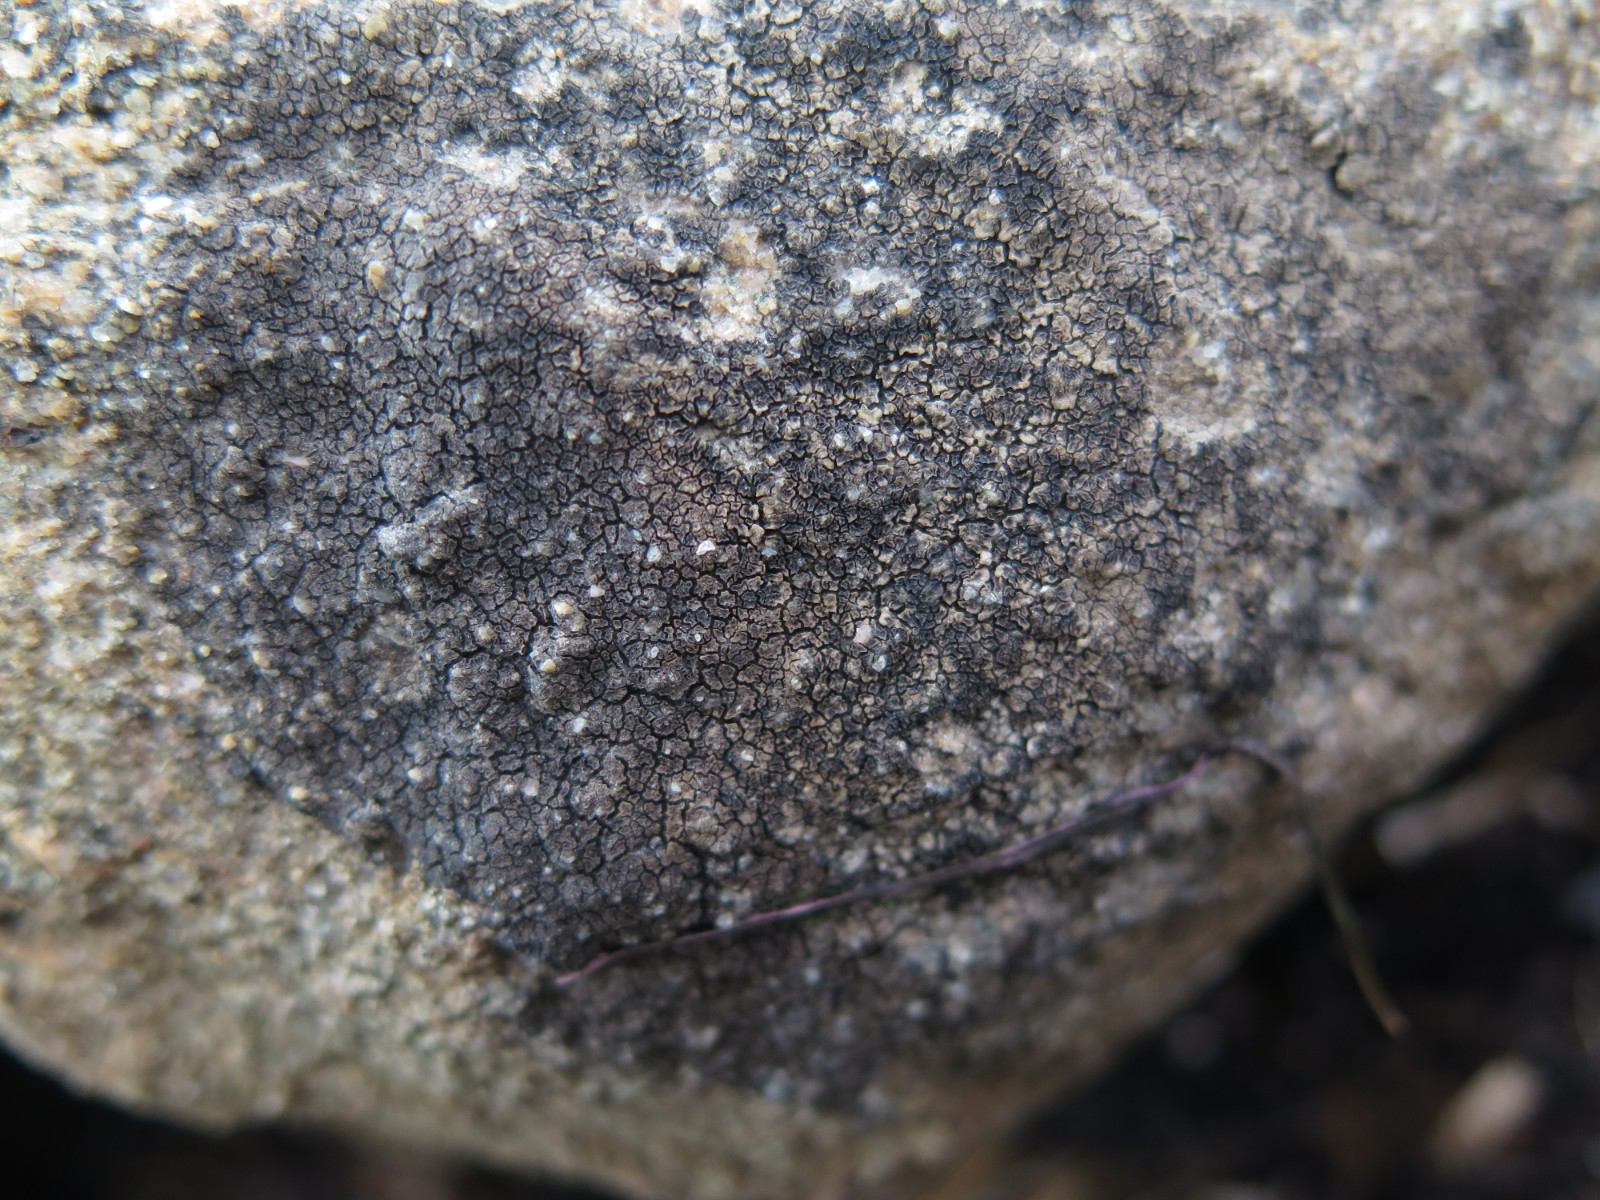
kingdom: Fungi
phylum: Ascomycota
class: Lecanoromycetes
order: Acarosporales
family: Acarosporaceae
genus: Acarospora
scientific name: Acarospora fuscata
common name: brun småsporelav
